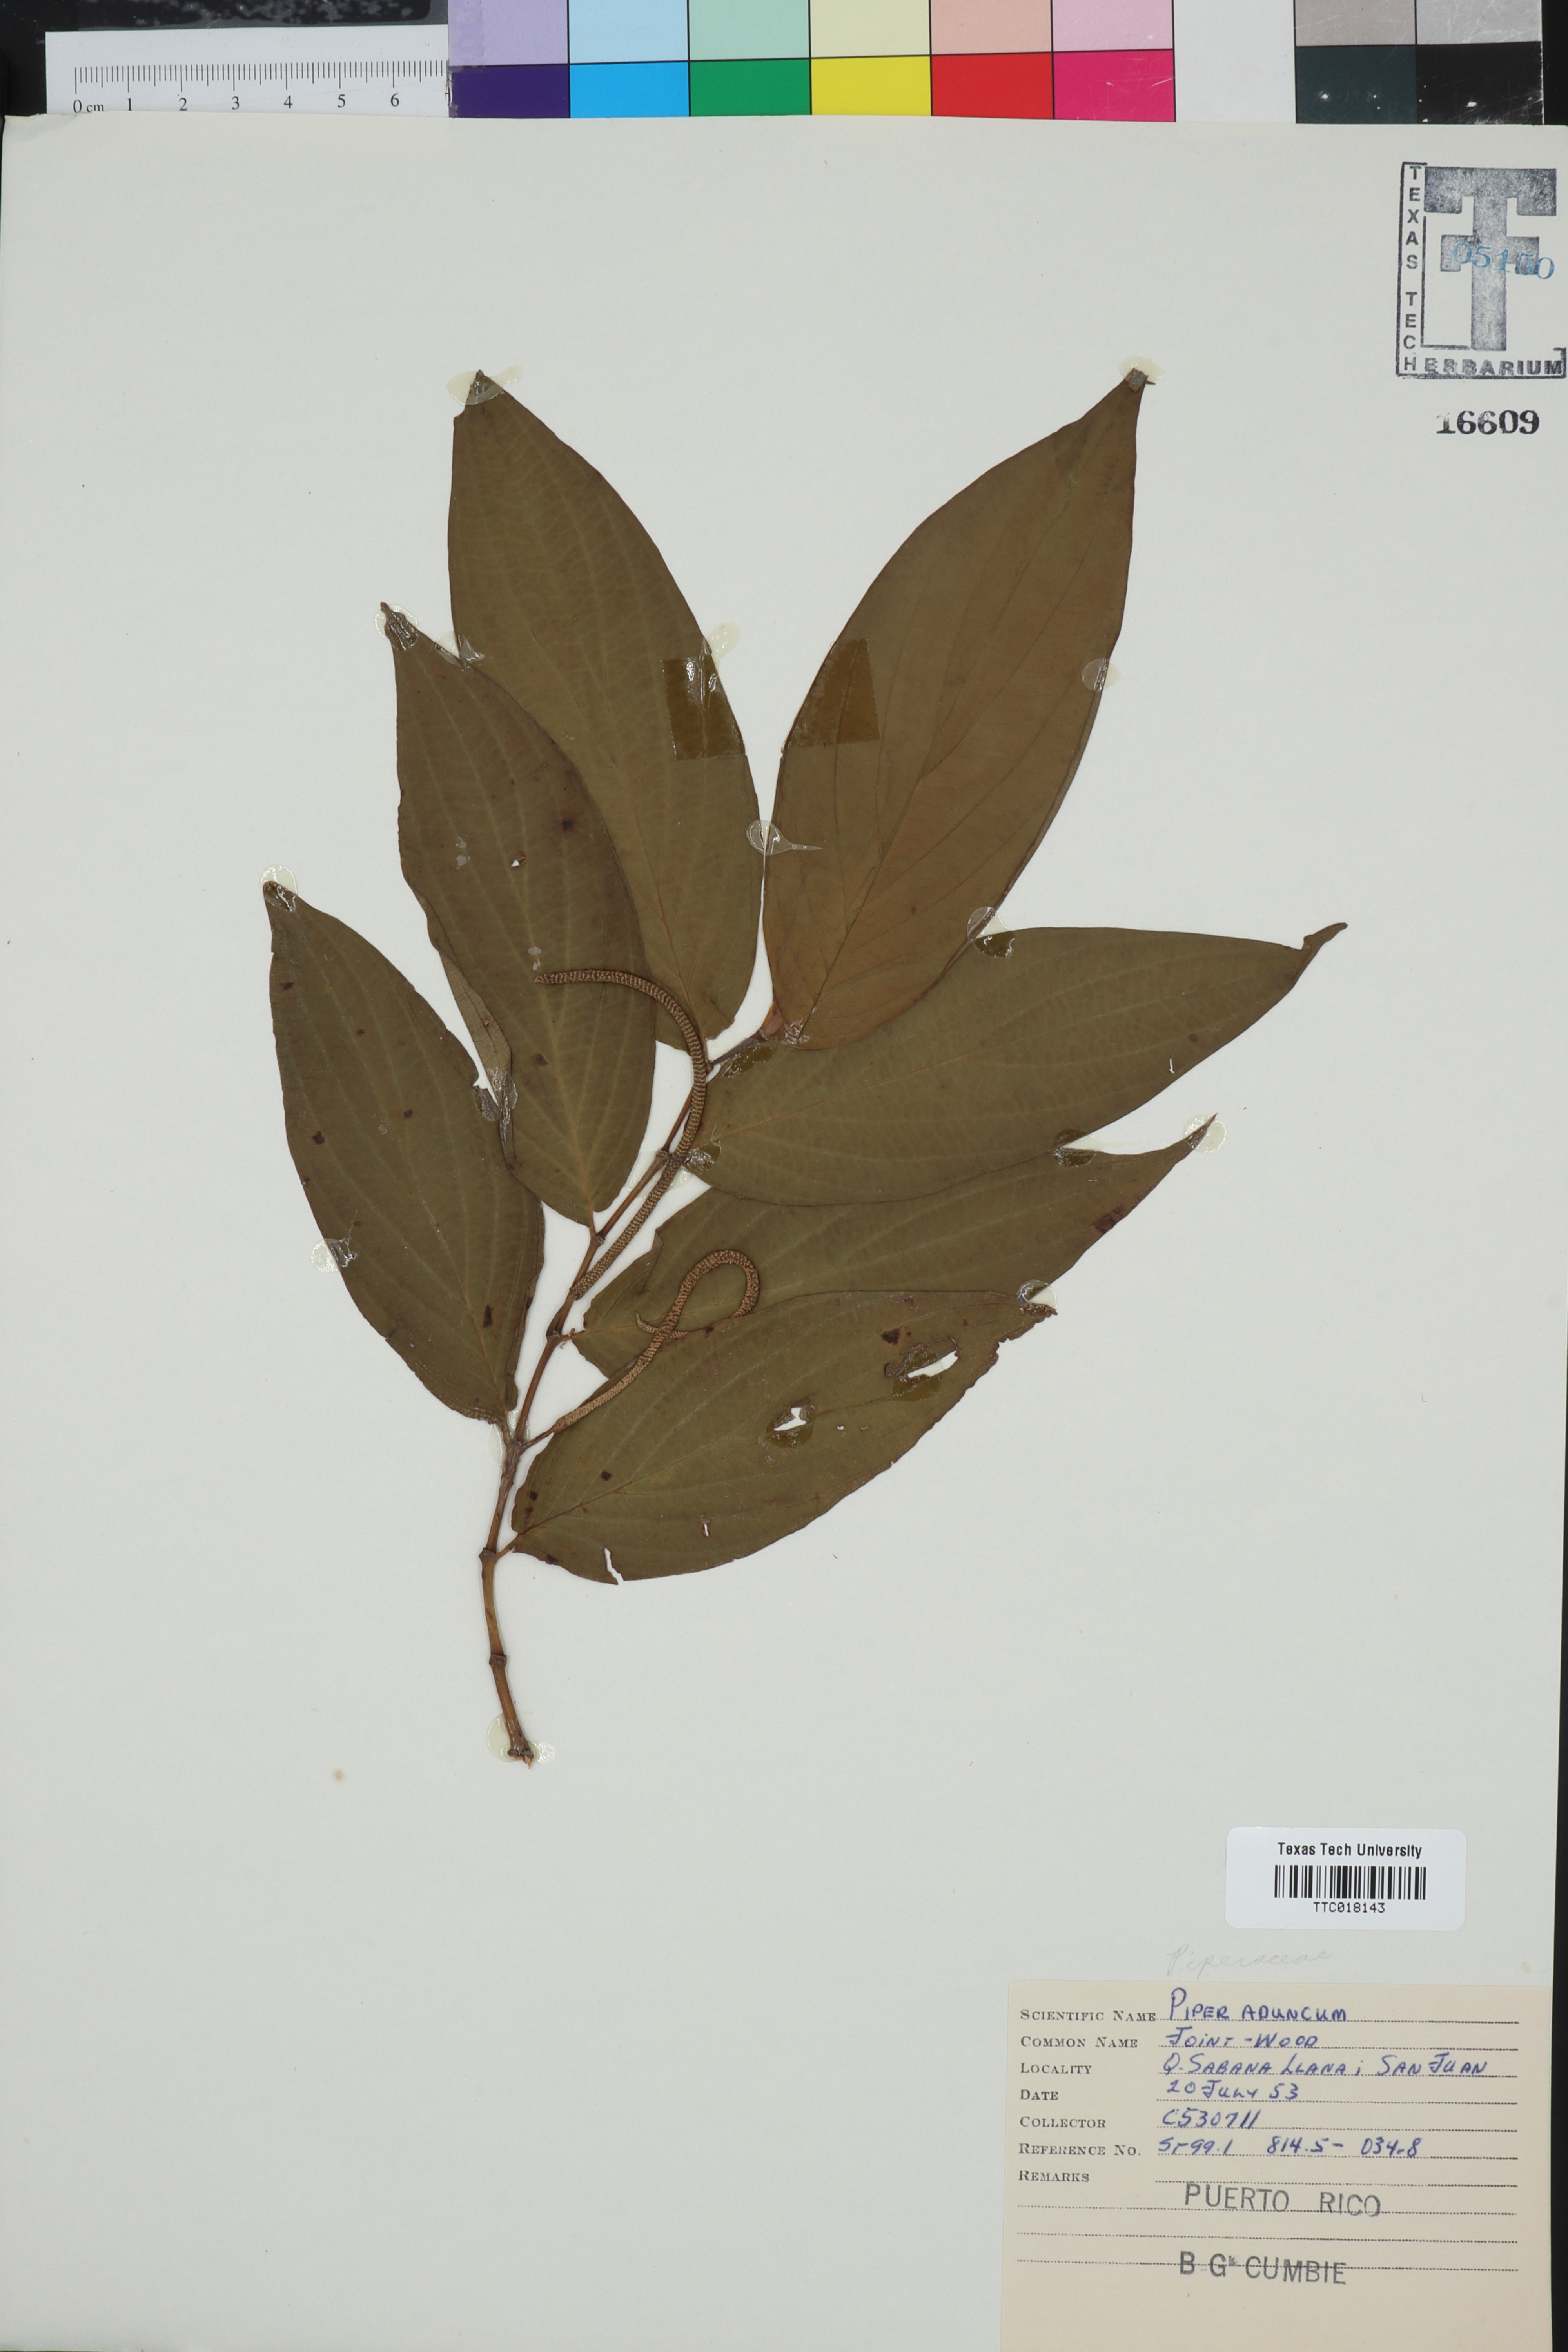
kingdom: Plantae
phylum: Tracheophyta
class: Magnoliopsida
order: Piperales
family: Piperaceae
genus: Piper
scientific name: Piper aduncum
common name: Spiked pepper
